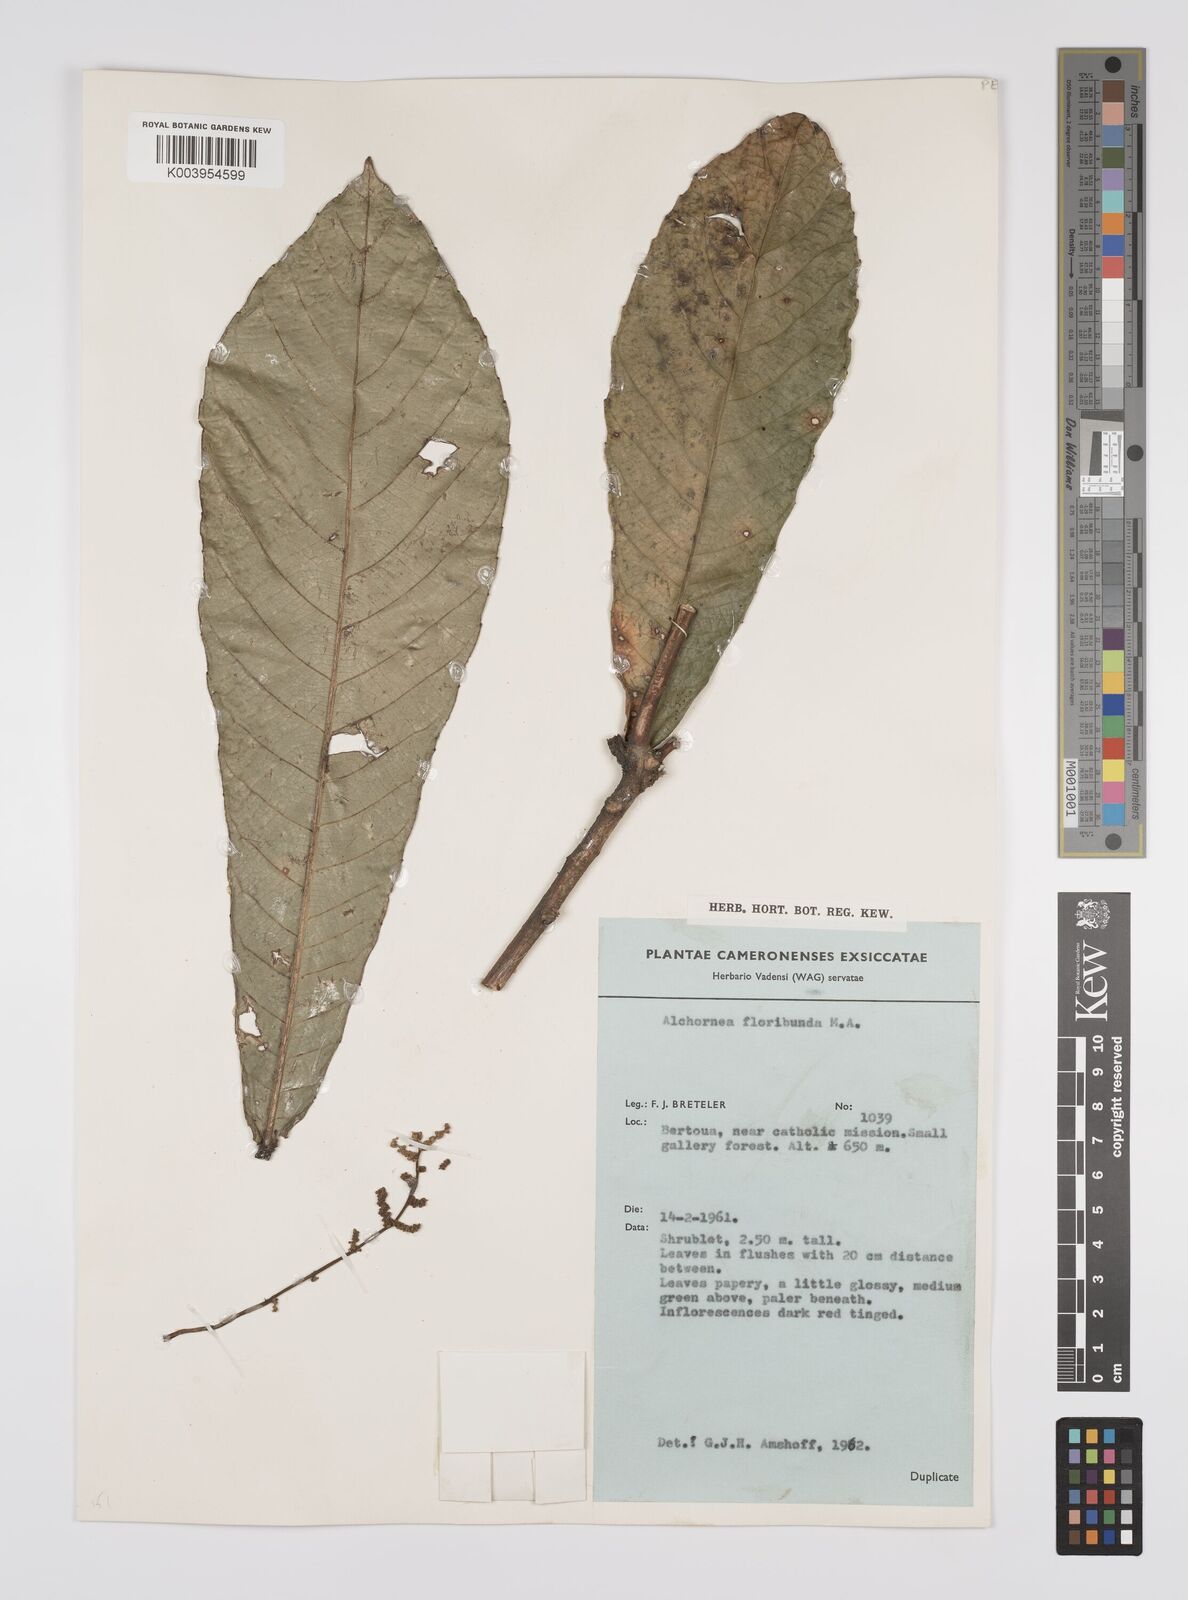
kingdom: Plantae
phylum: Tracheophyta
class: Magnoliopsida
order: Malpighiales
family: Euphorbiaceae
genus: Alchornea
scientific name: Alchornea floribunda
